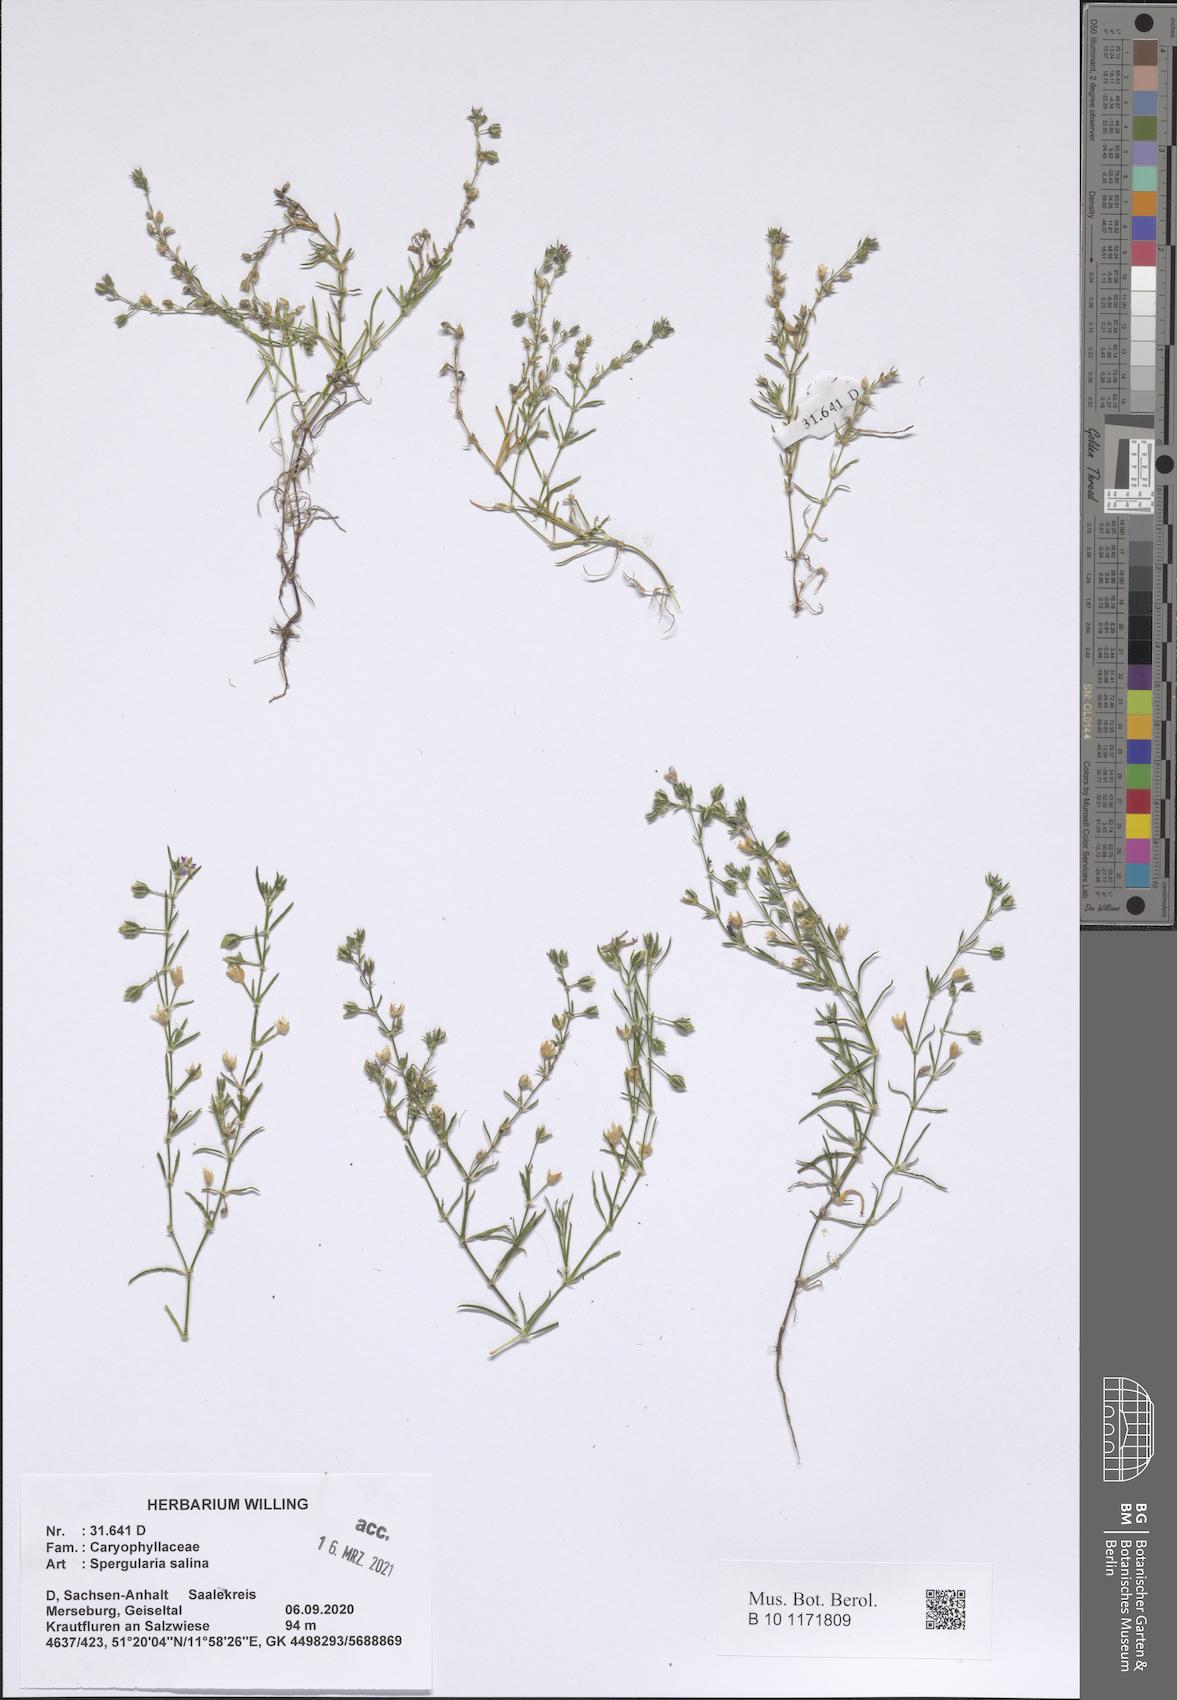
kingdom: Plantae
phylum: Tracheophyta
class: Magnoliopsida
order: Caryophyllales
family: Caryophyllaceae
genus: Spergularia
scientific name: Spergularia marina
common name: Lesser sea-spurrey
